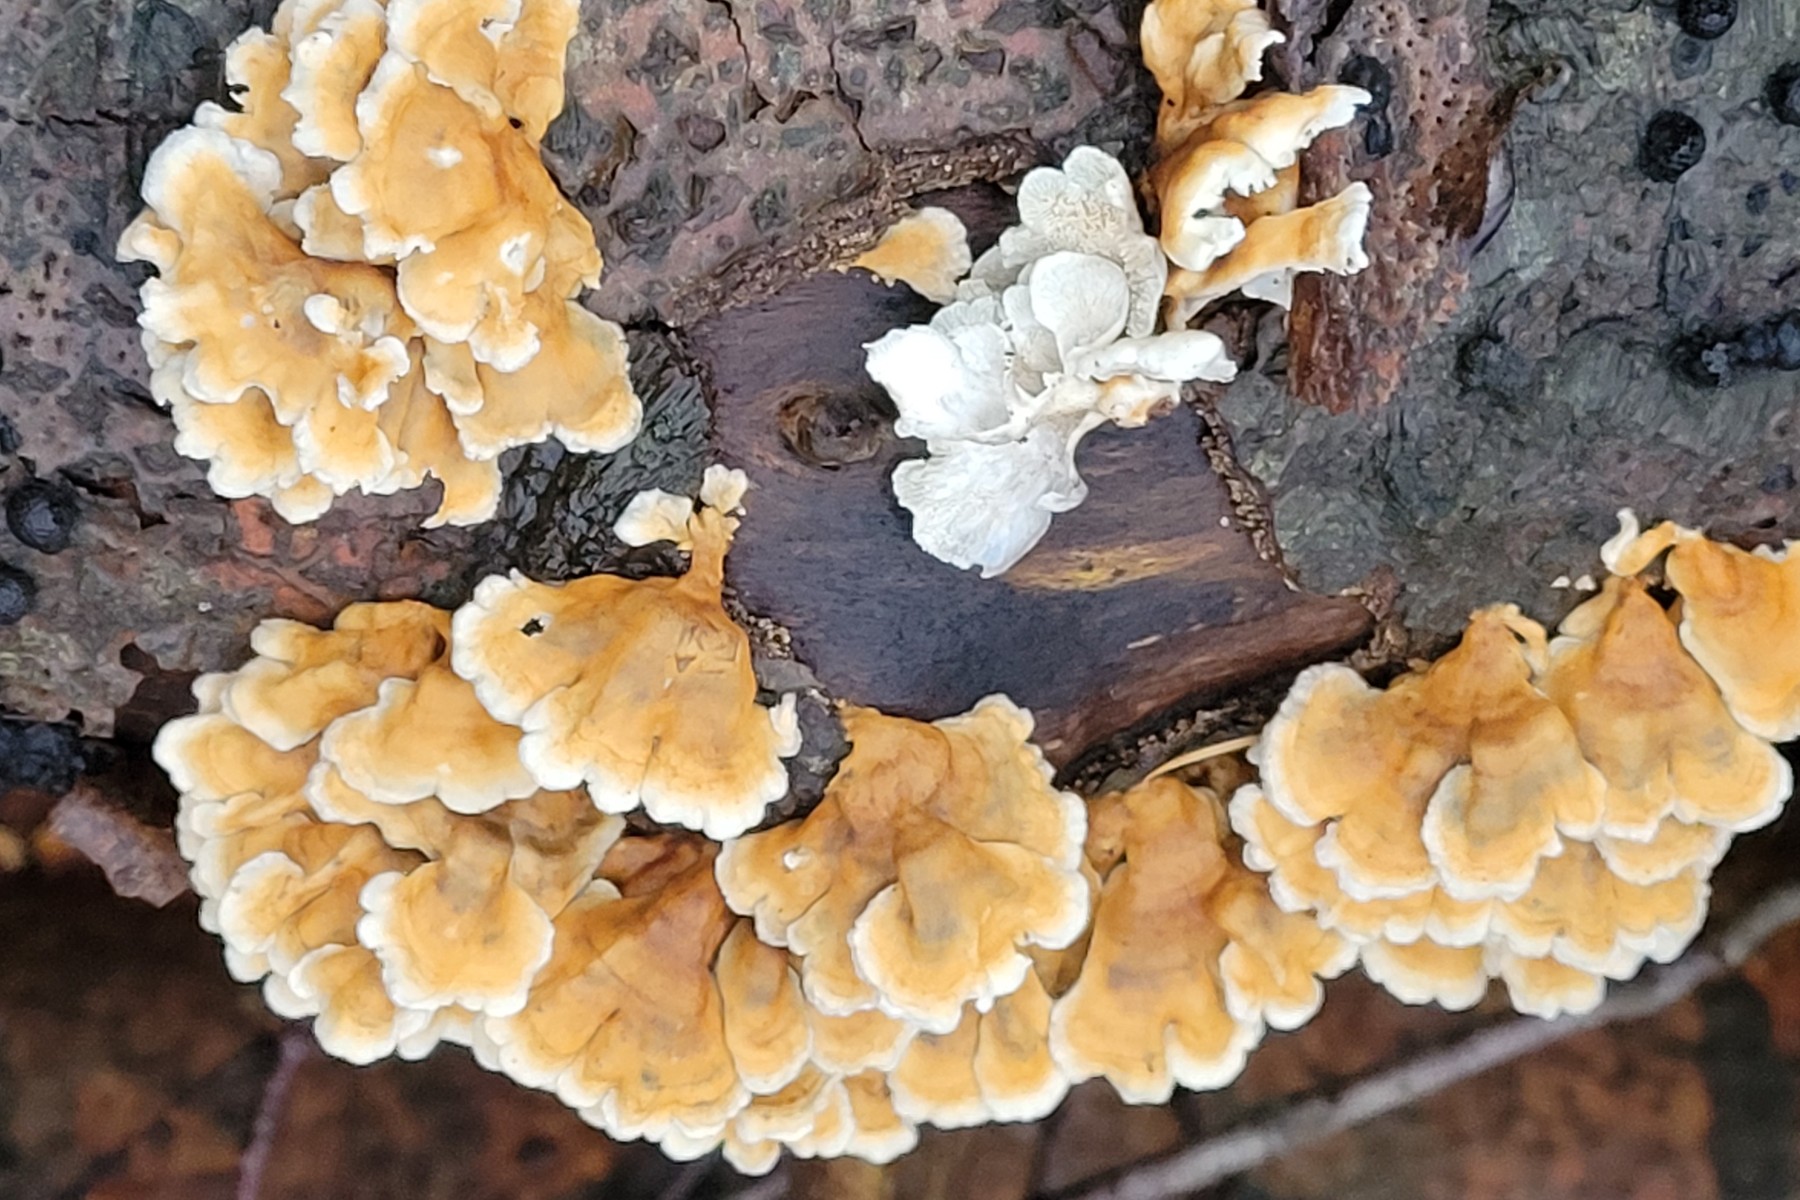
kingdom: Fungi
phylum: Basidiomycota
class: Agaricomycetes
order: Amylocorticiales
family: Amylocorticiaceae
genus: Plicaturopsis
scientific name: Plicaturopsis crispa
